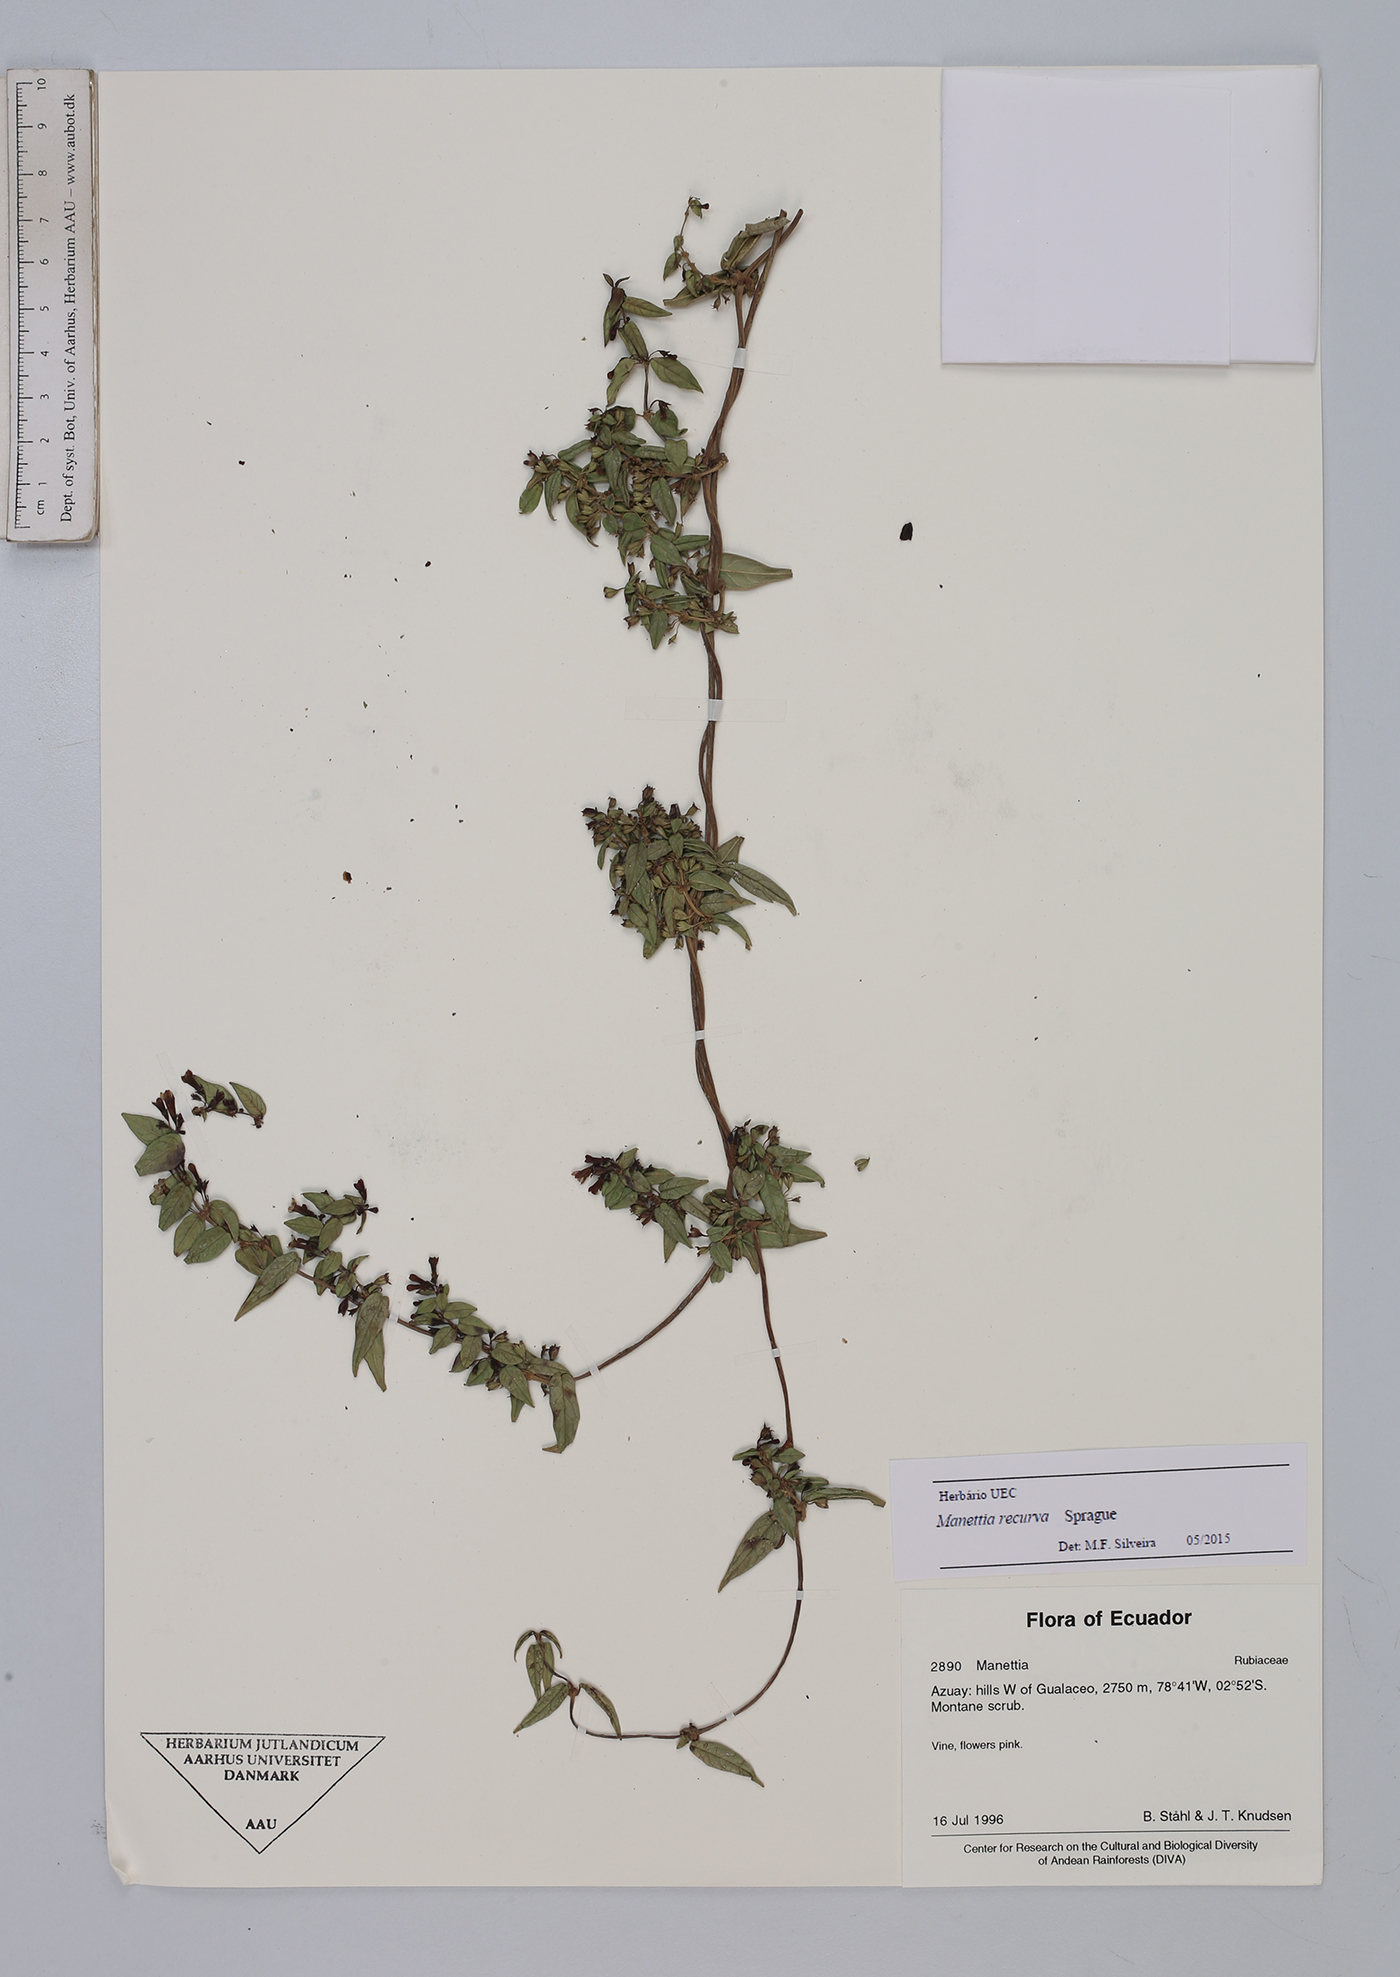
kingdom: Plantae
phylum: Tracheophyta
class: Magnoliopsida
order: Gentianales
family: Rubiaceae
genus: Manettia
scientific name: Manettia recurva
